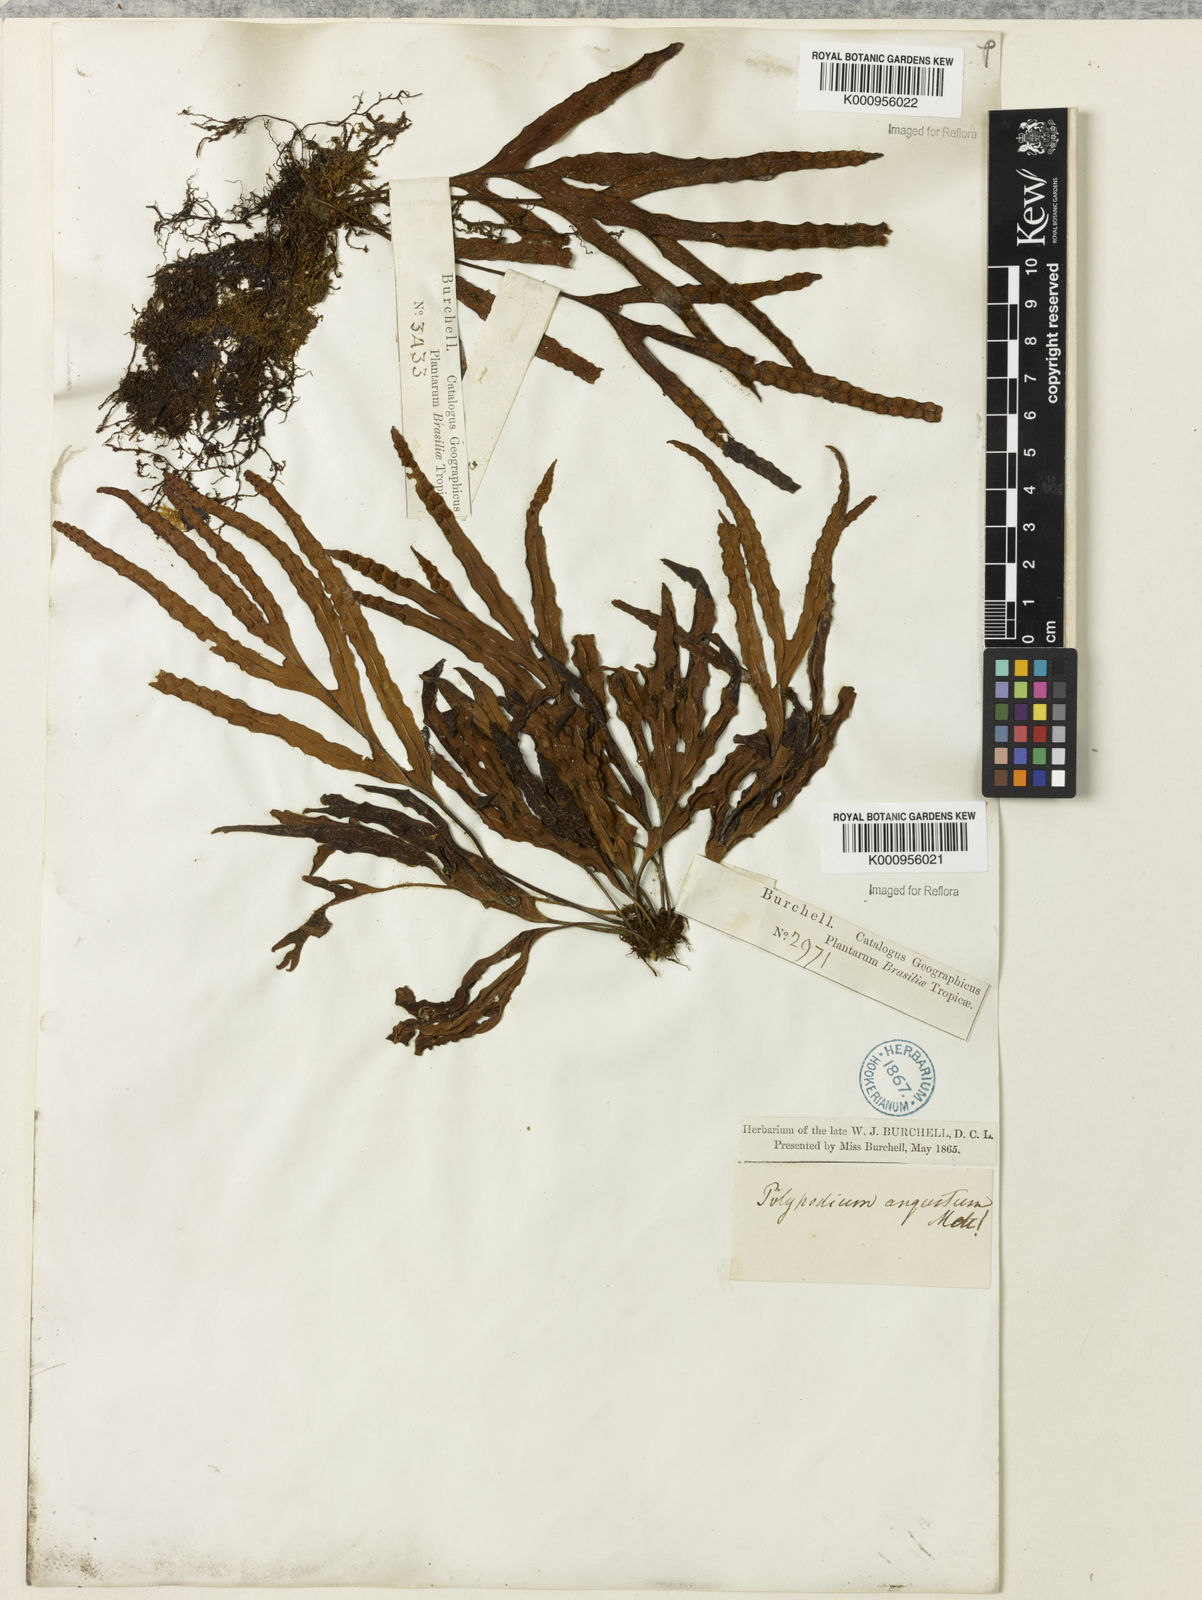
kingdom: Plantae
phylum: Tracheophyta
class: Polypodiopsida
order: Polypodiales
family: Polypodiaceae
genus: Pleopeltis
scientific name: Pleopeltis angusta
